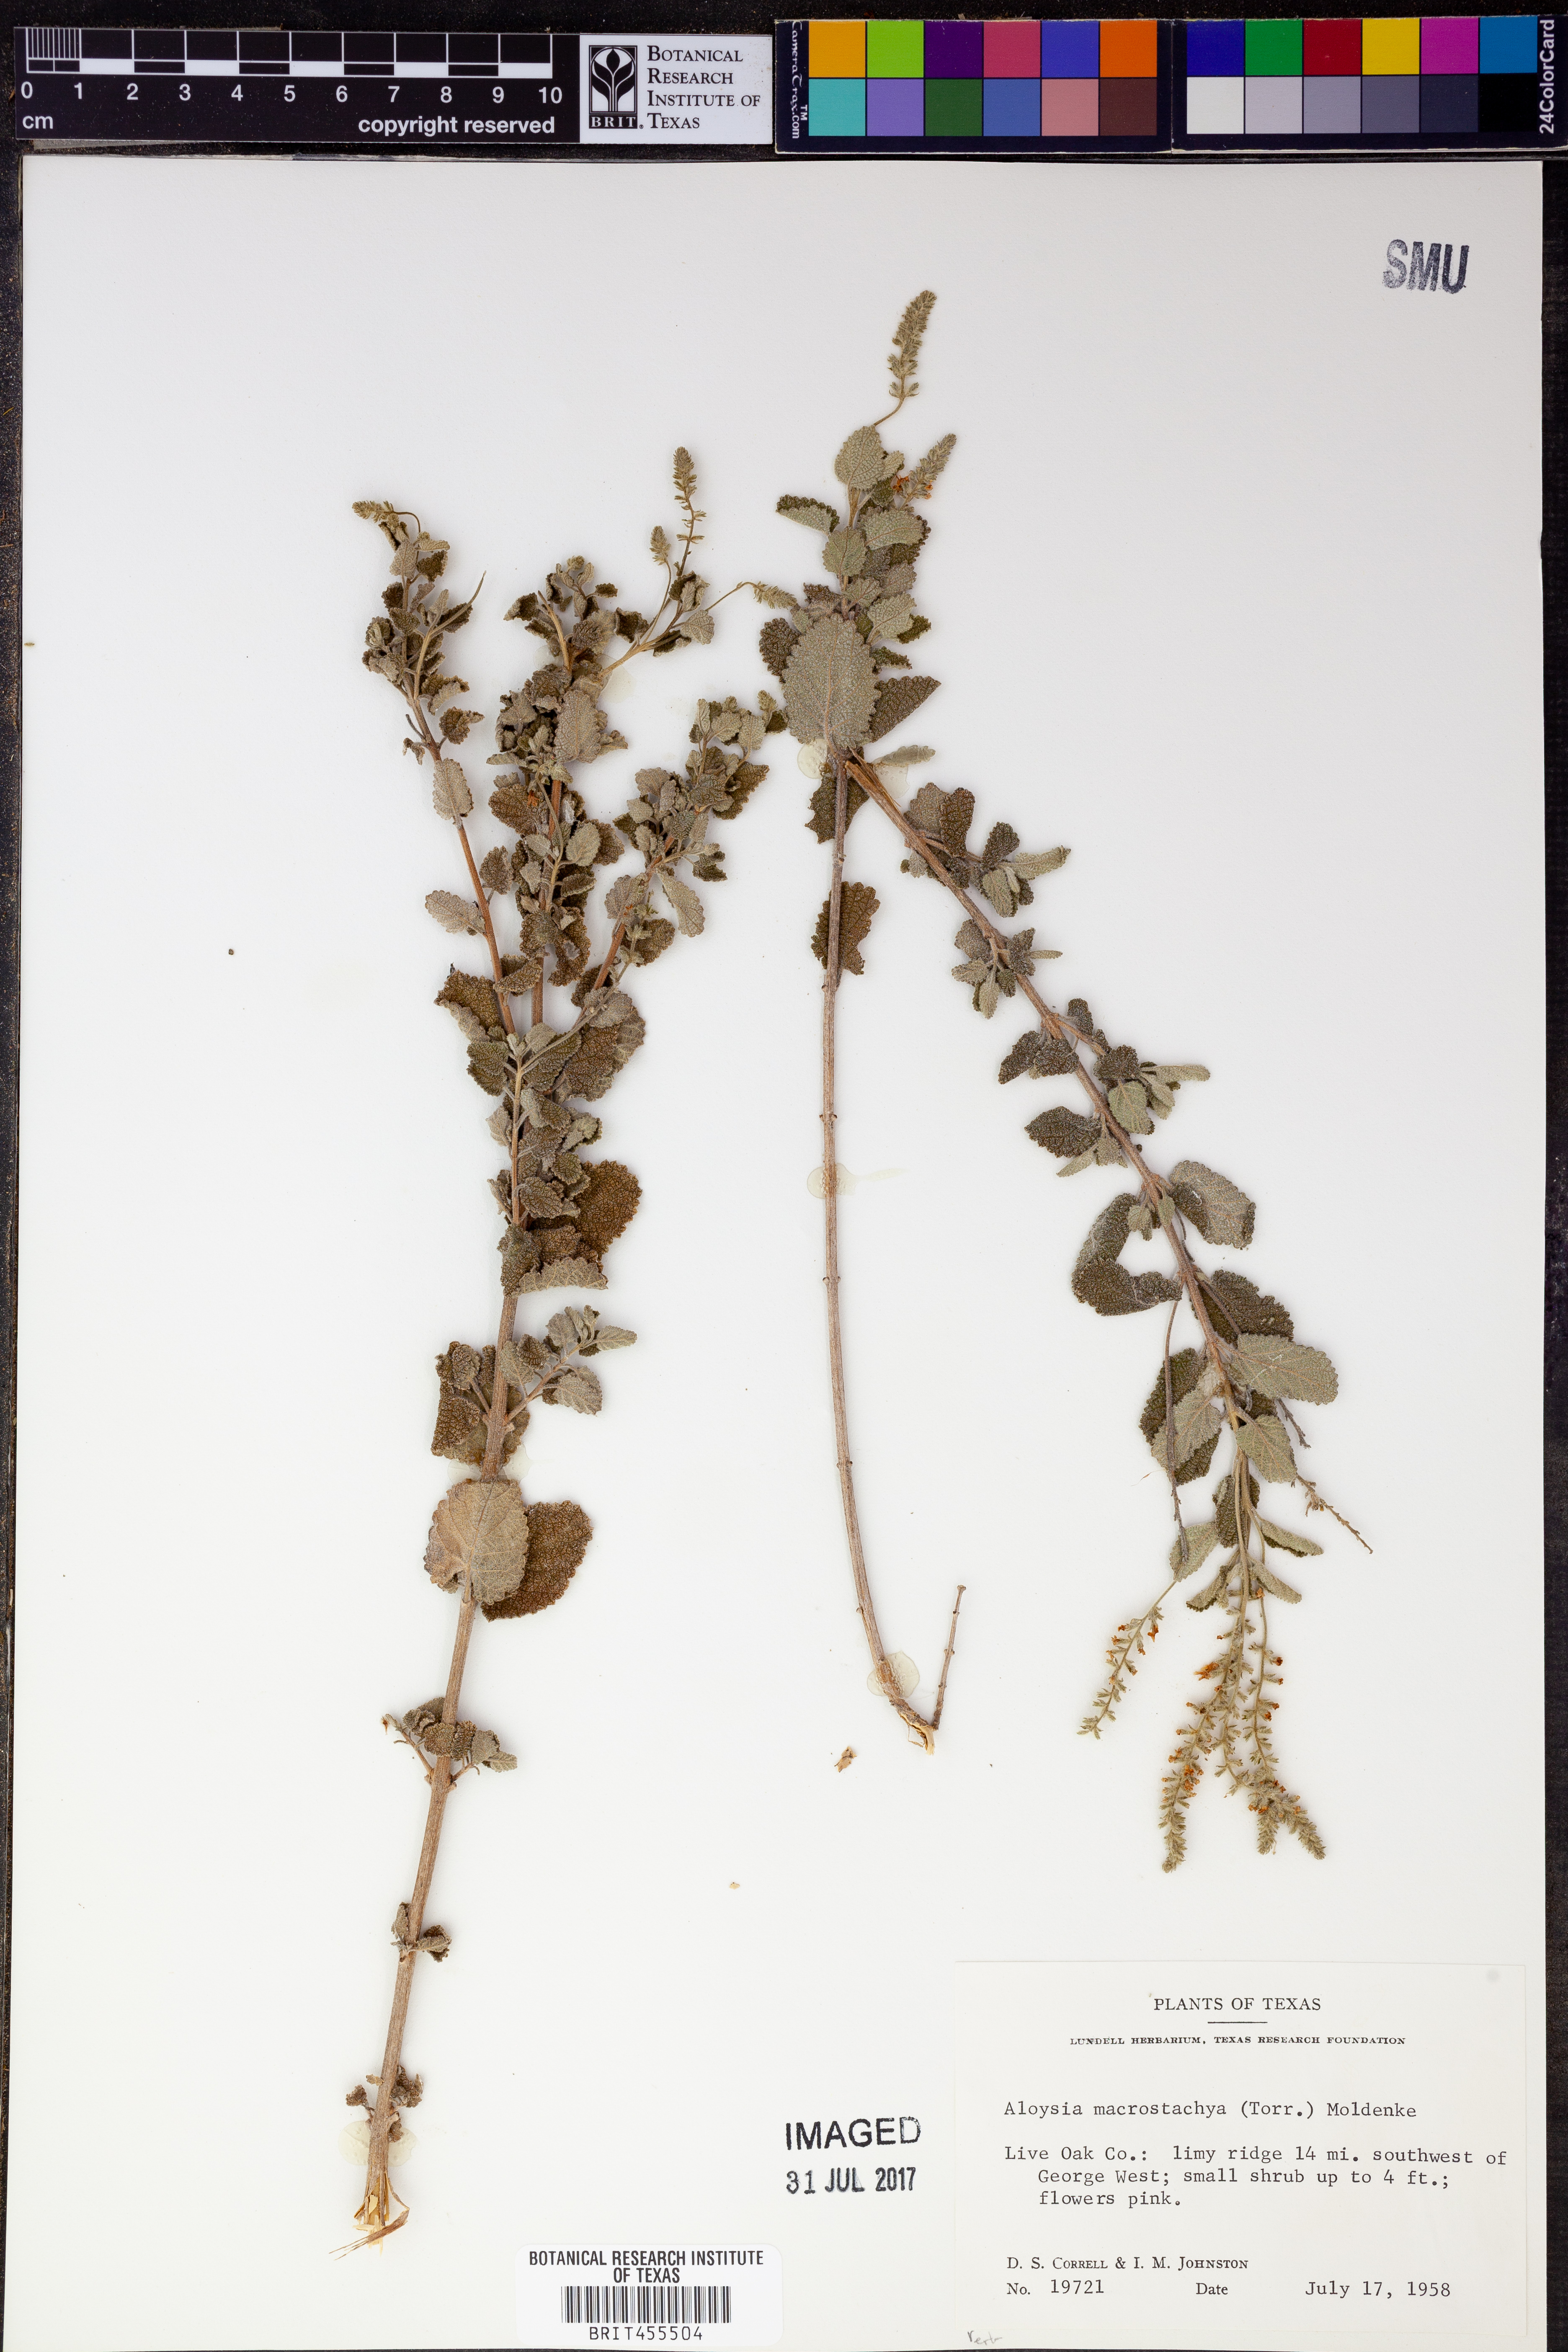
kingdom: Plantae
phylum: Tracheophyta
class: Magnoliopsida
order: Lamiales
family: Verbenaceae
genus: Aloysia
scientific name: Aloysia macrostachya
